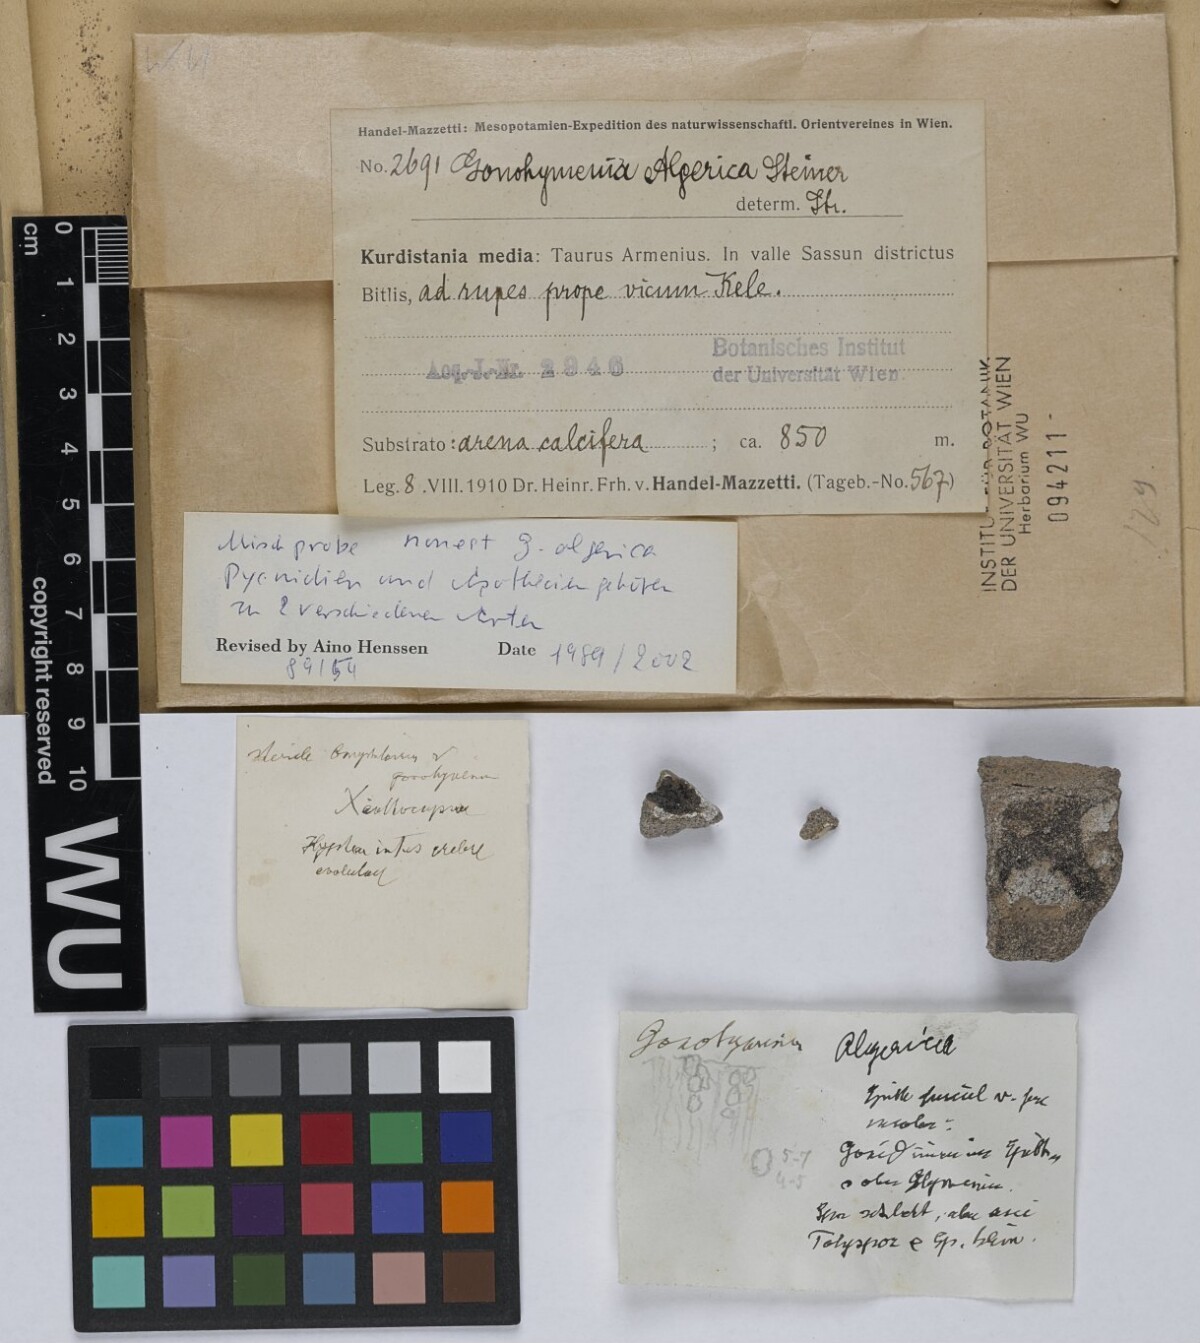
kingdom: Fungi
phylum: Ascomycota
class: Lichinomycetes
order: Lichinales
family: Lichinaceae
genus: Lichinella
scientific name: Lichinella algerica
